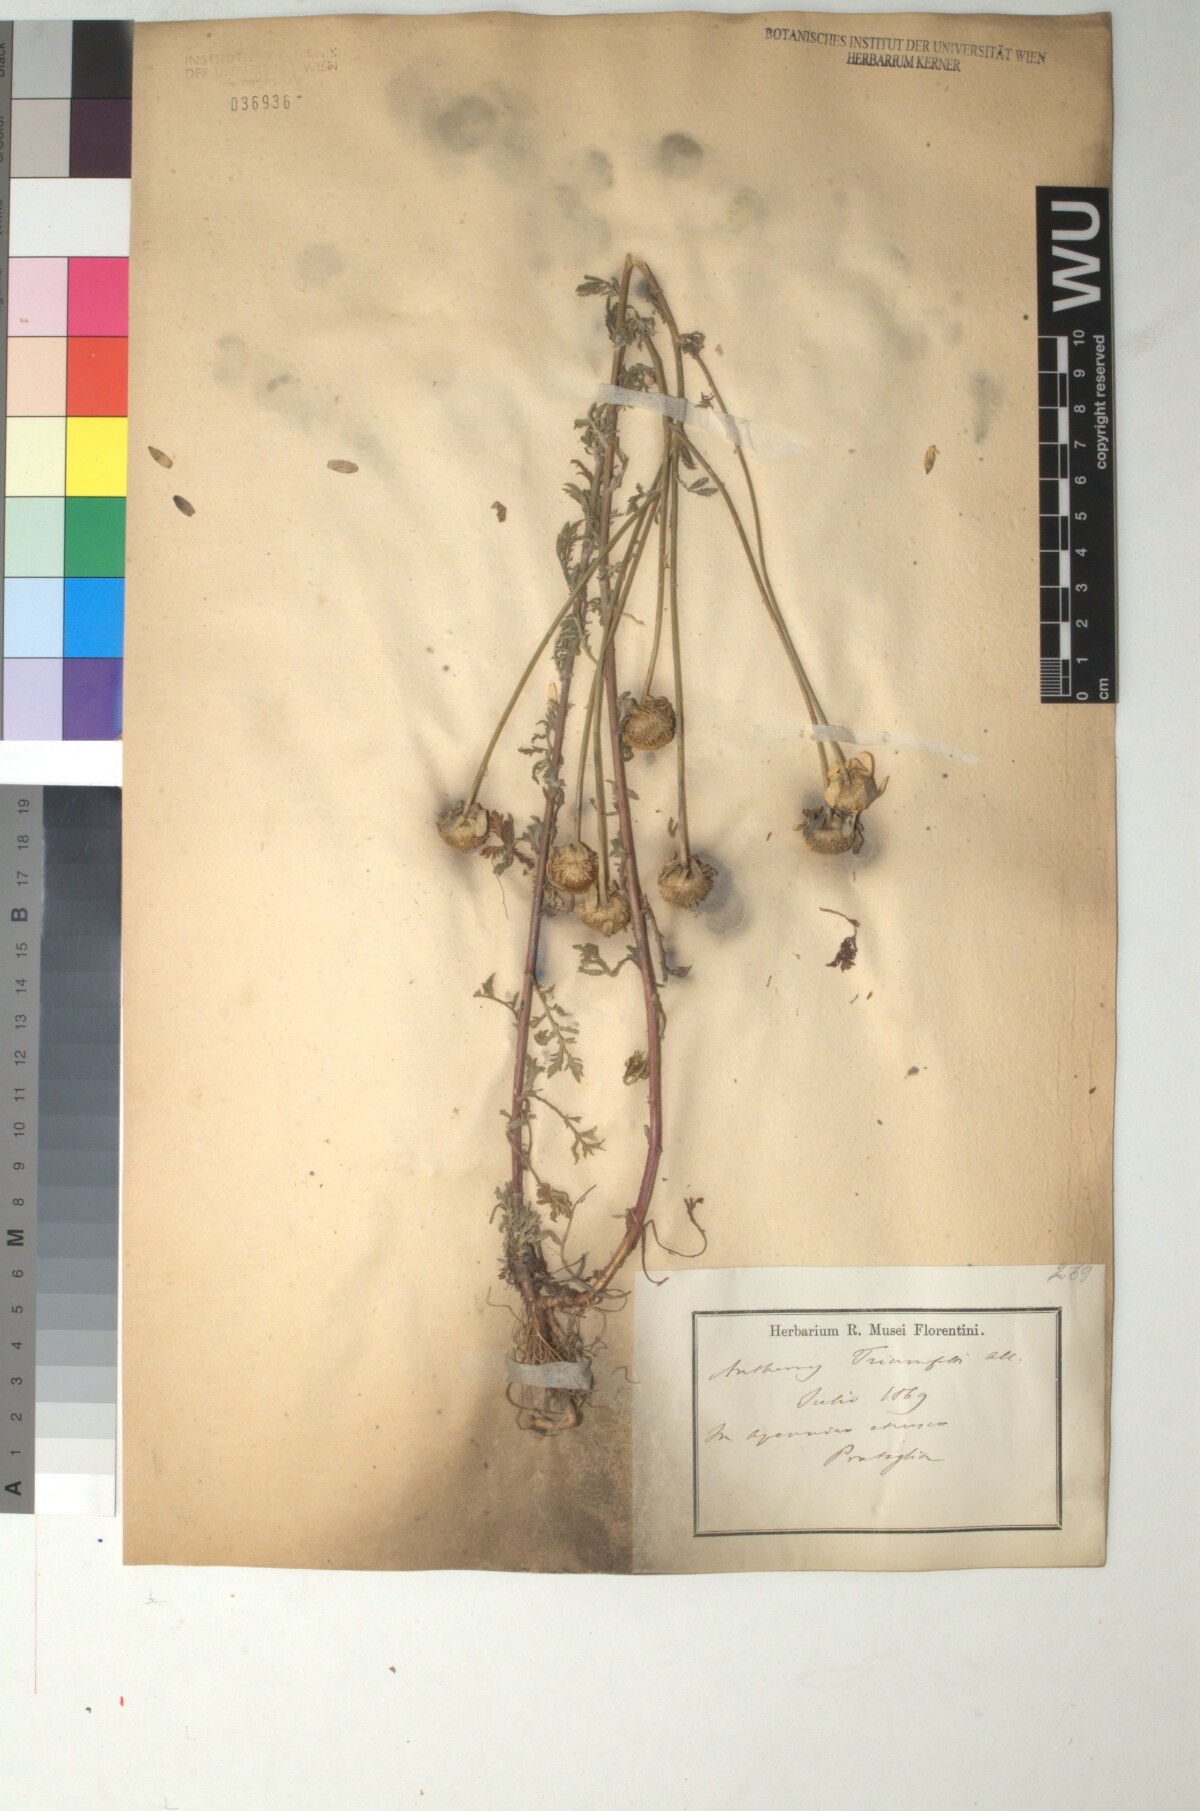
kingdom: Plantae
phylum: Tracheophyta
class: Magnoliopsida
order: Asterales
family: Asteraceae
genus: Cota
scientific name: Cota triumfetti
